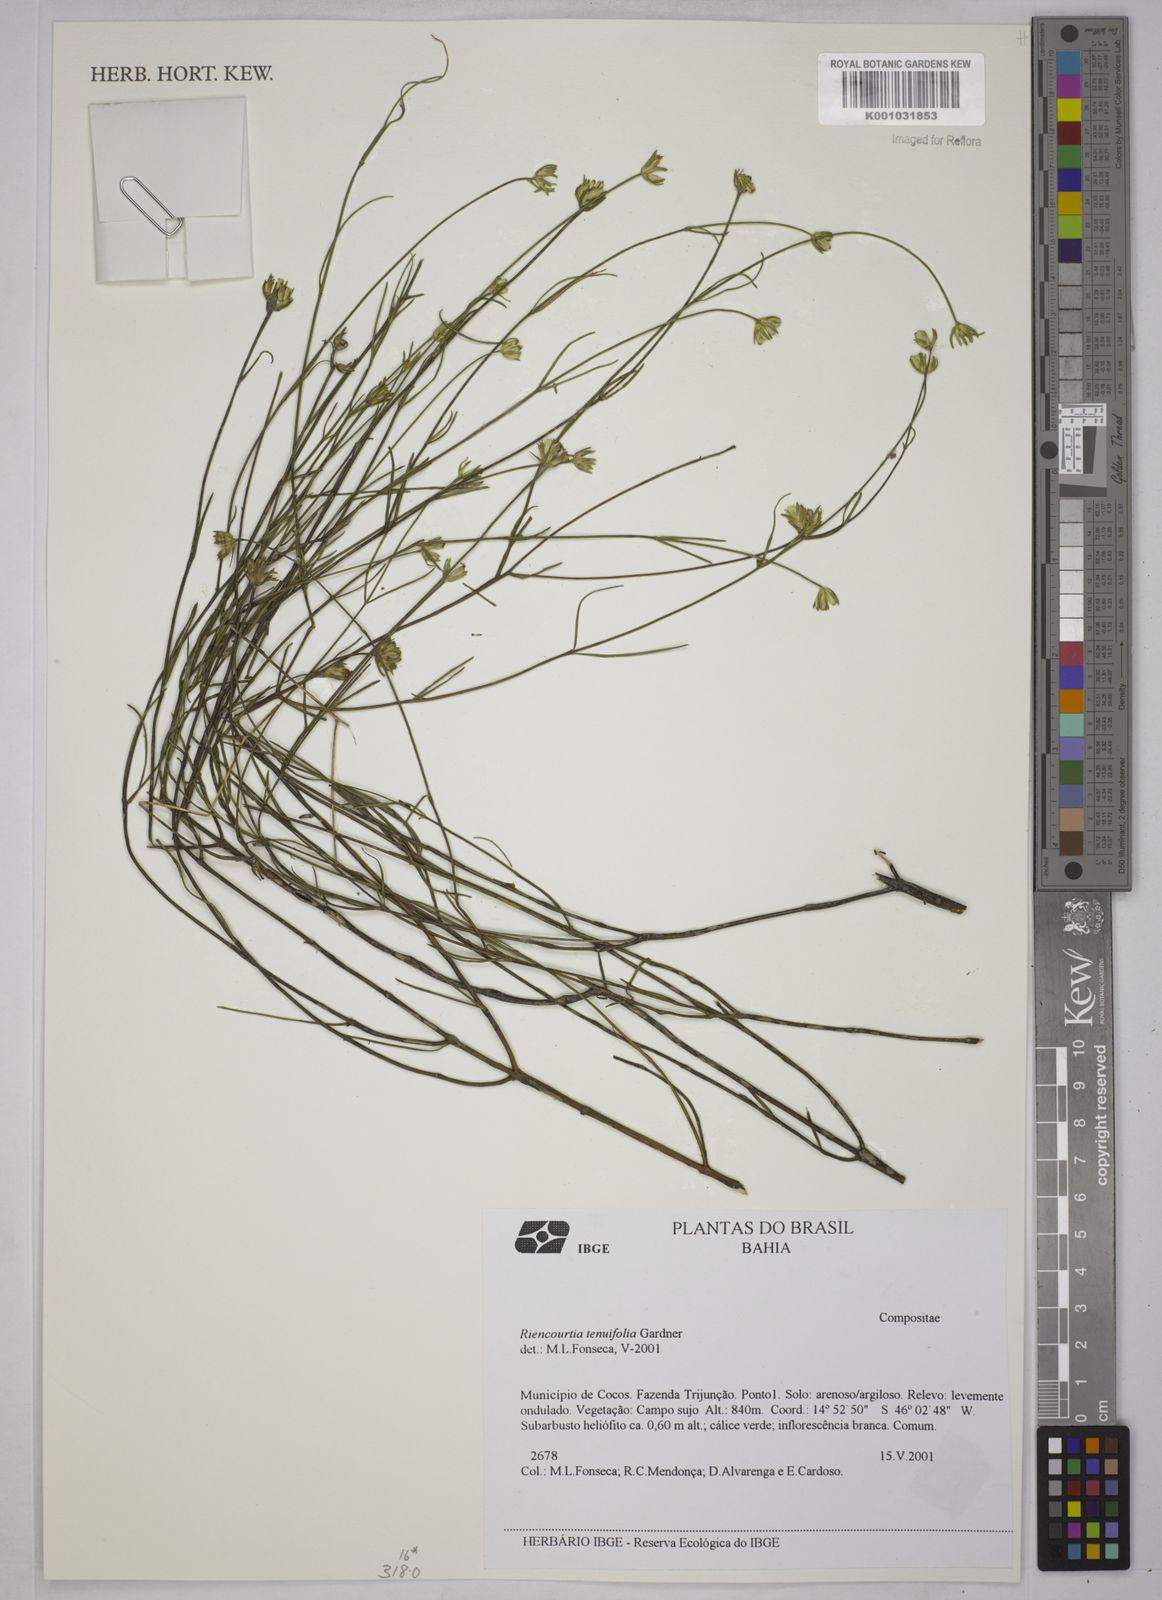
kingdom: Plantae
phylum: Tracheophyta
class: Magnoliopsida
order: Asterales
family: Asteraceae
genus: Riencourtia
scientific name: Riencourtia tenuifolia
